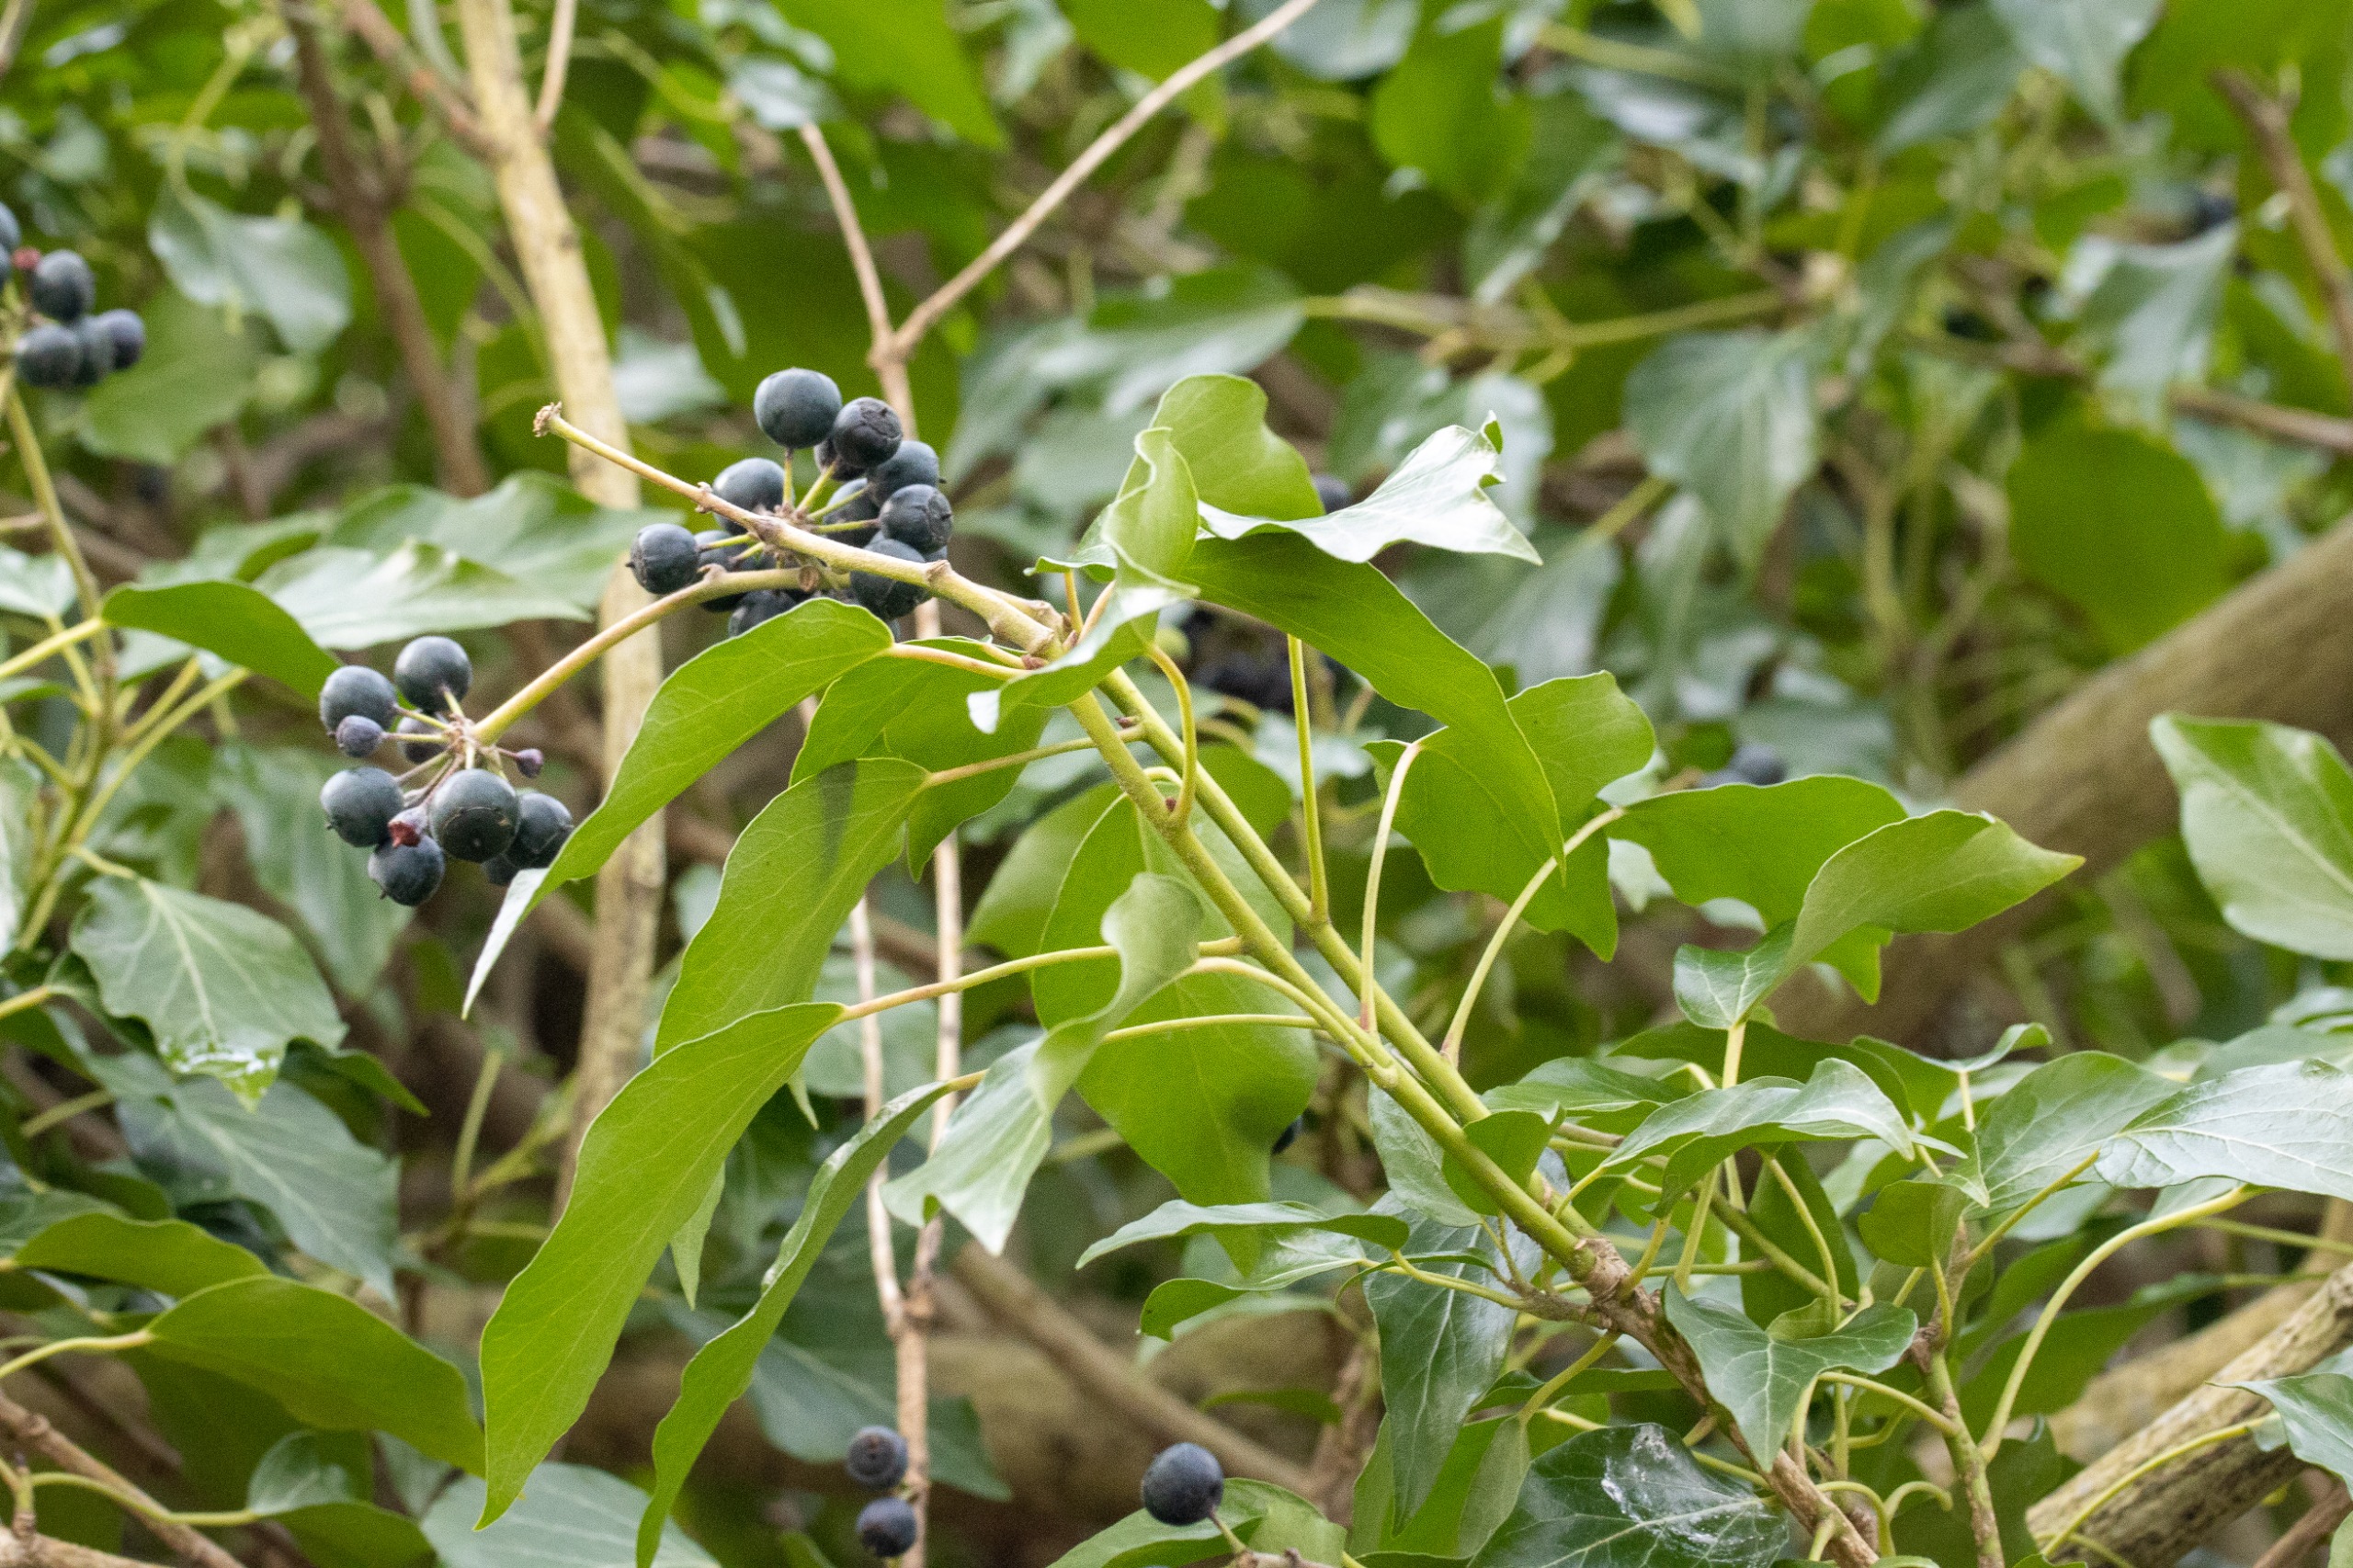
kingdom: Plantae
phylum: Tracheophyta
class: Magnoliopsida
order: Apiales
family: Araliaceae
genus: Hedera
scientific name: Hedera helix
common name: Vedbend
